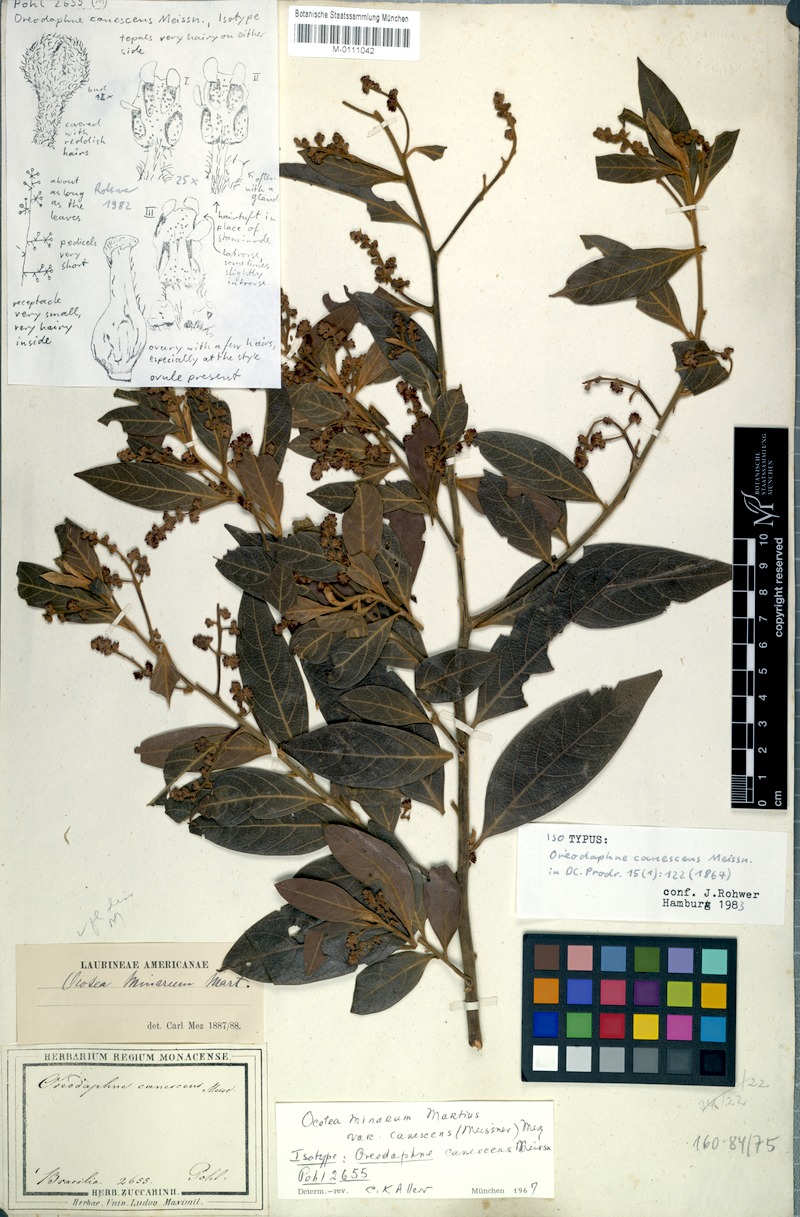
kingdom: Plantae
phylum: Tracheophyta
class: Magnoliopsida
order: Laurales
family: Lauraceae
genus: Ocotea
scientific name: Ocotea minarum
